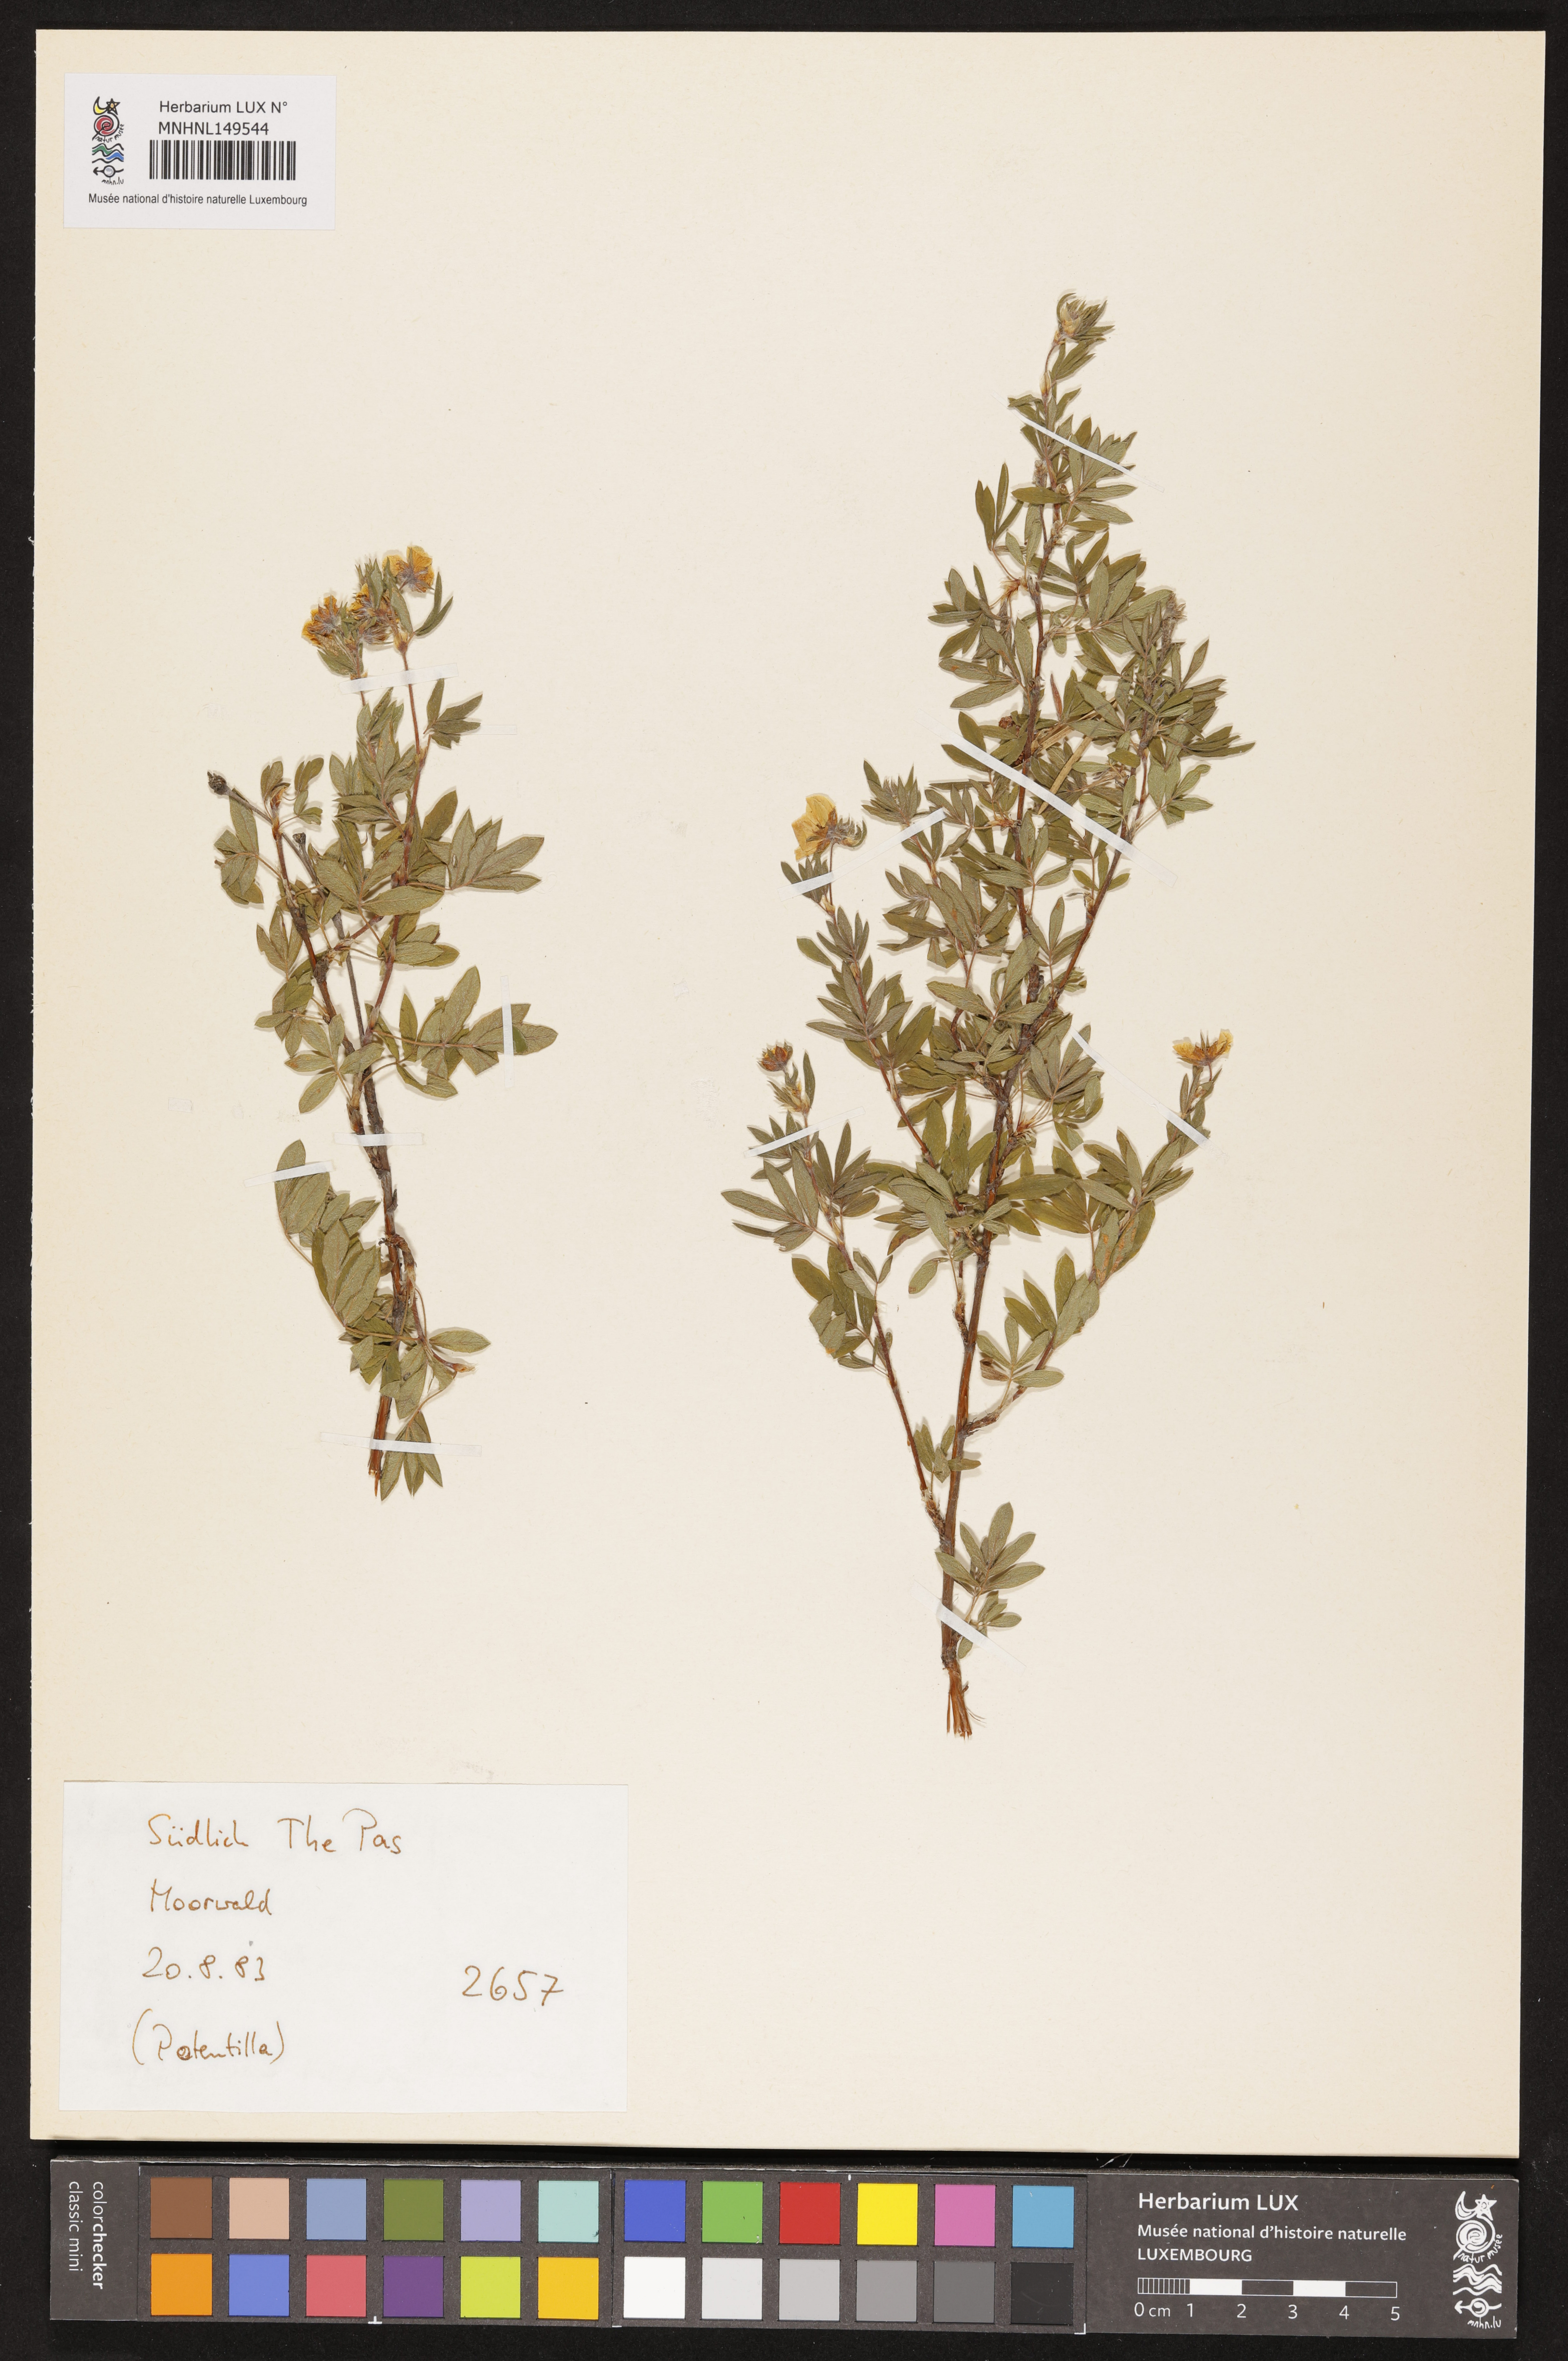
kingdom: Plantae
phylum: Tracheophyta
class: Magnoliopsida
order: Rosales
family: Rosaceae
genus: Potentilla
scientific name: Potentilla
